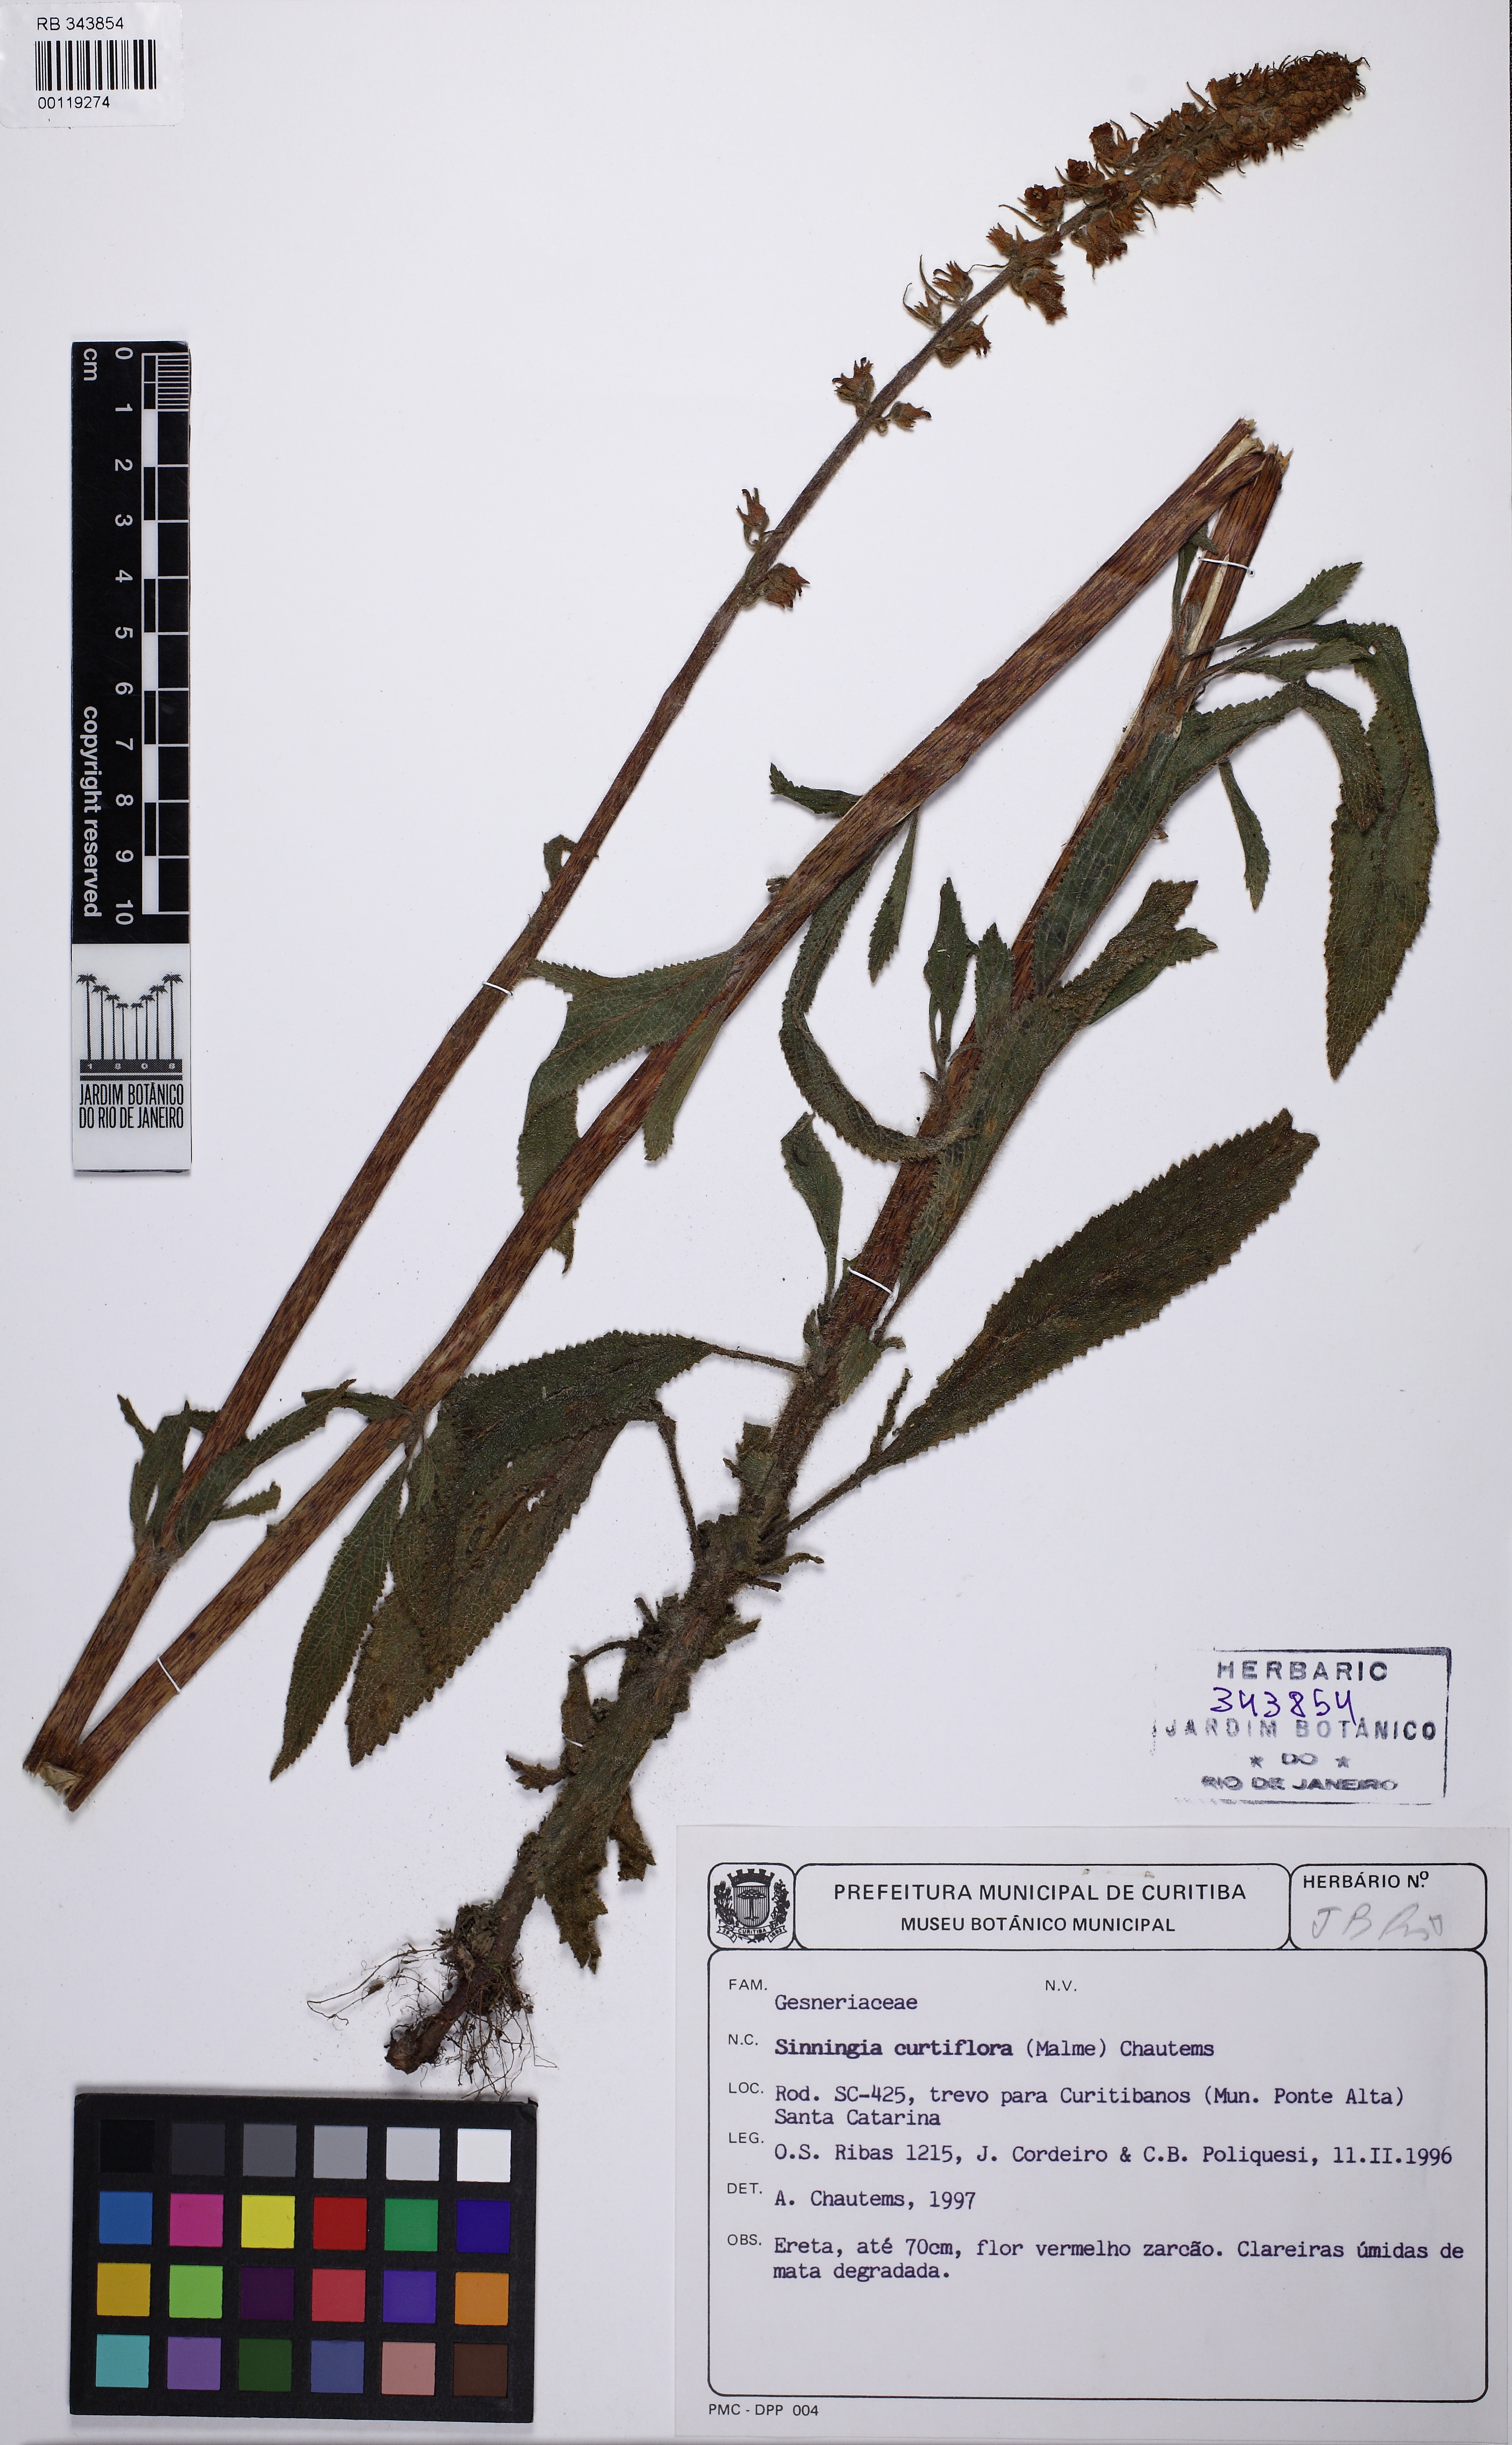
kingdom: Plantae
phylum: Tracheophyta
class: Magnoliopsida
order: Lamiales
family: Gesneriaceae
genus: Sinningia
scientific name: Sinningia curtiflora
